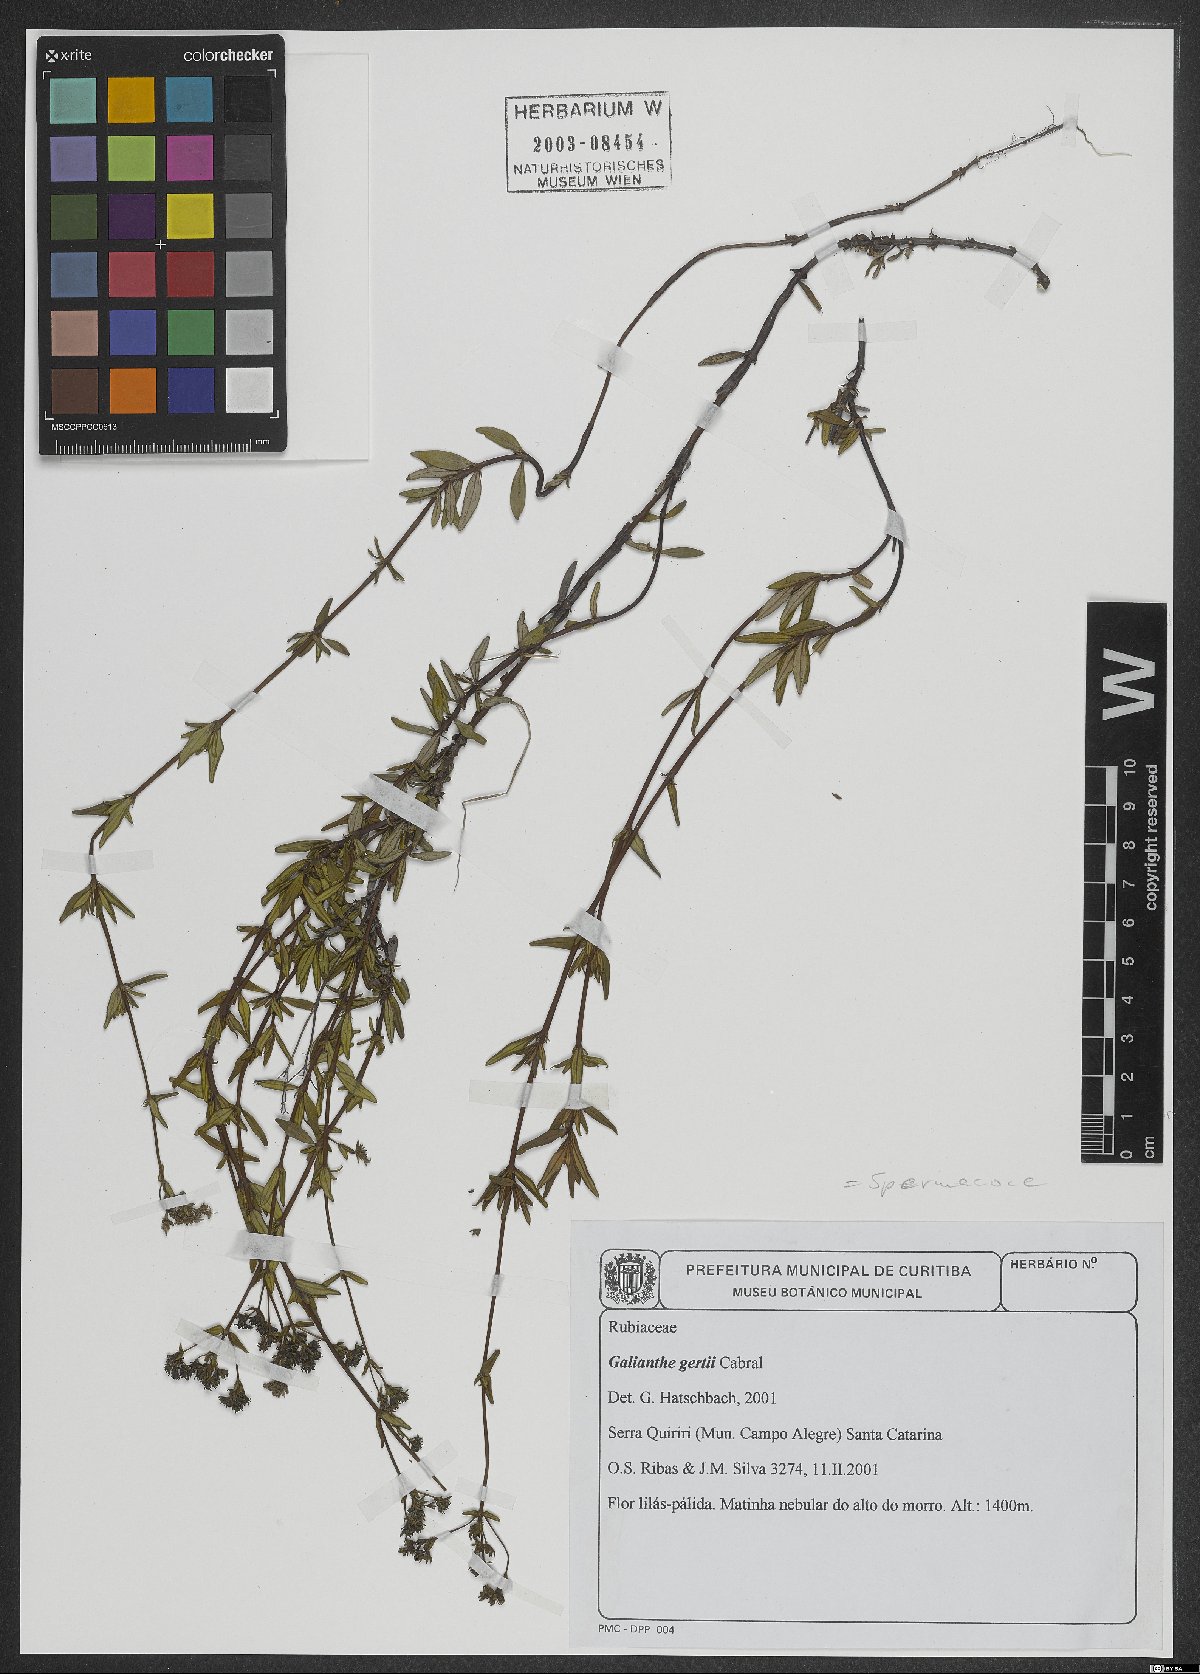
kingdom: Plantae
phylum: Tracheophyta
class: Magnoliopsida
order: Gentianales
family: Rubiaceae
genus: Galianthe
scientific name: Galianthe gertii
